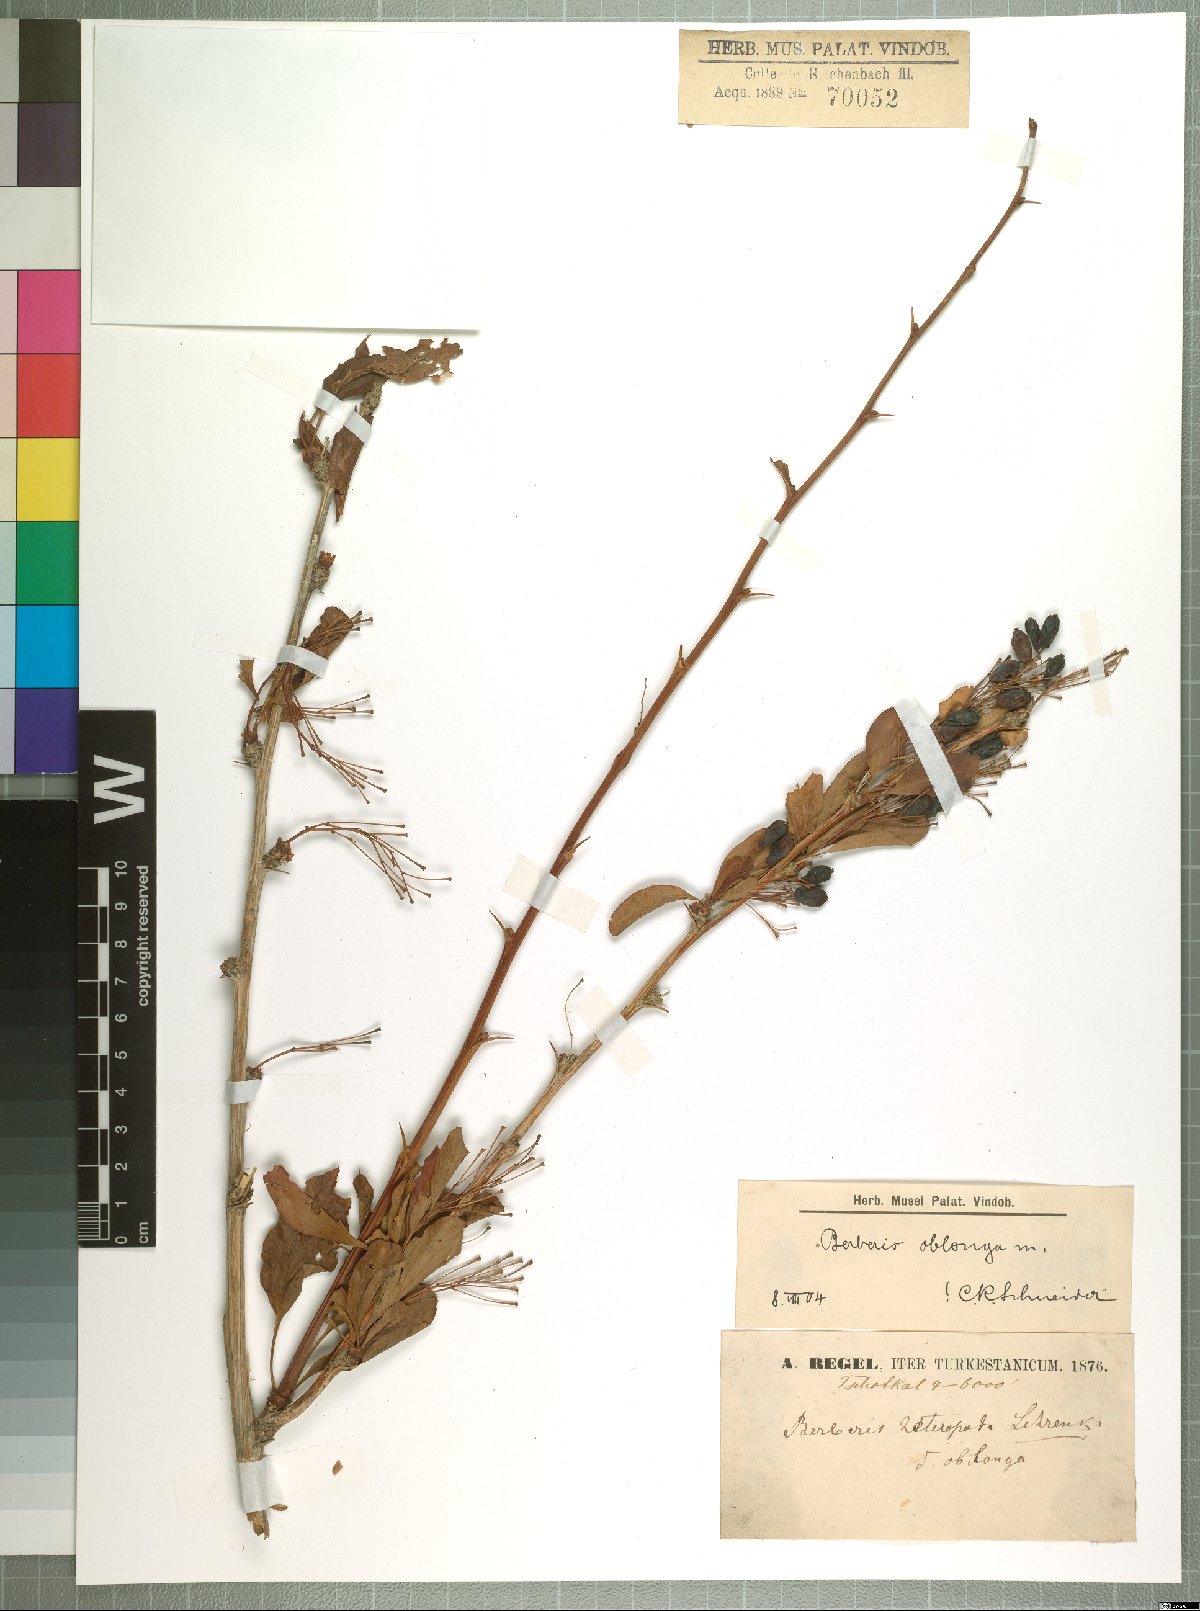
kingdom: Plantae
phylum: Tracheophyta
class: Magnoliopsida
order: Ranunculales
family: Berberidaceae
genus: Berberis
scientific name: Berberis oblonga
